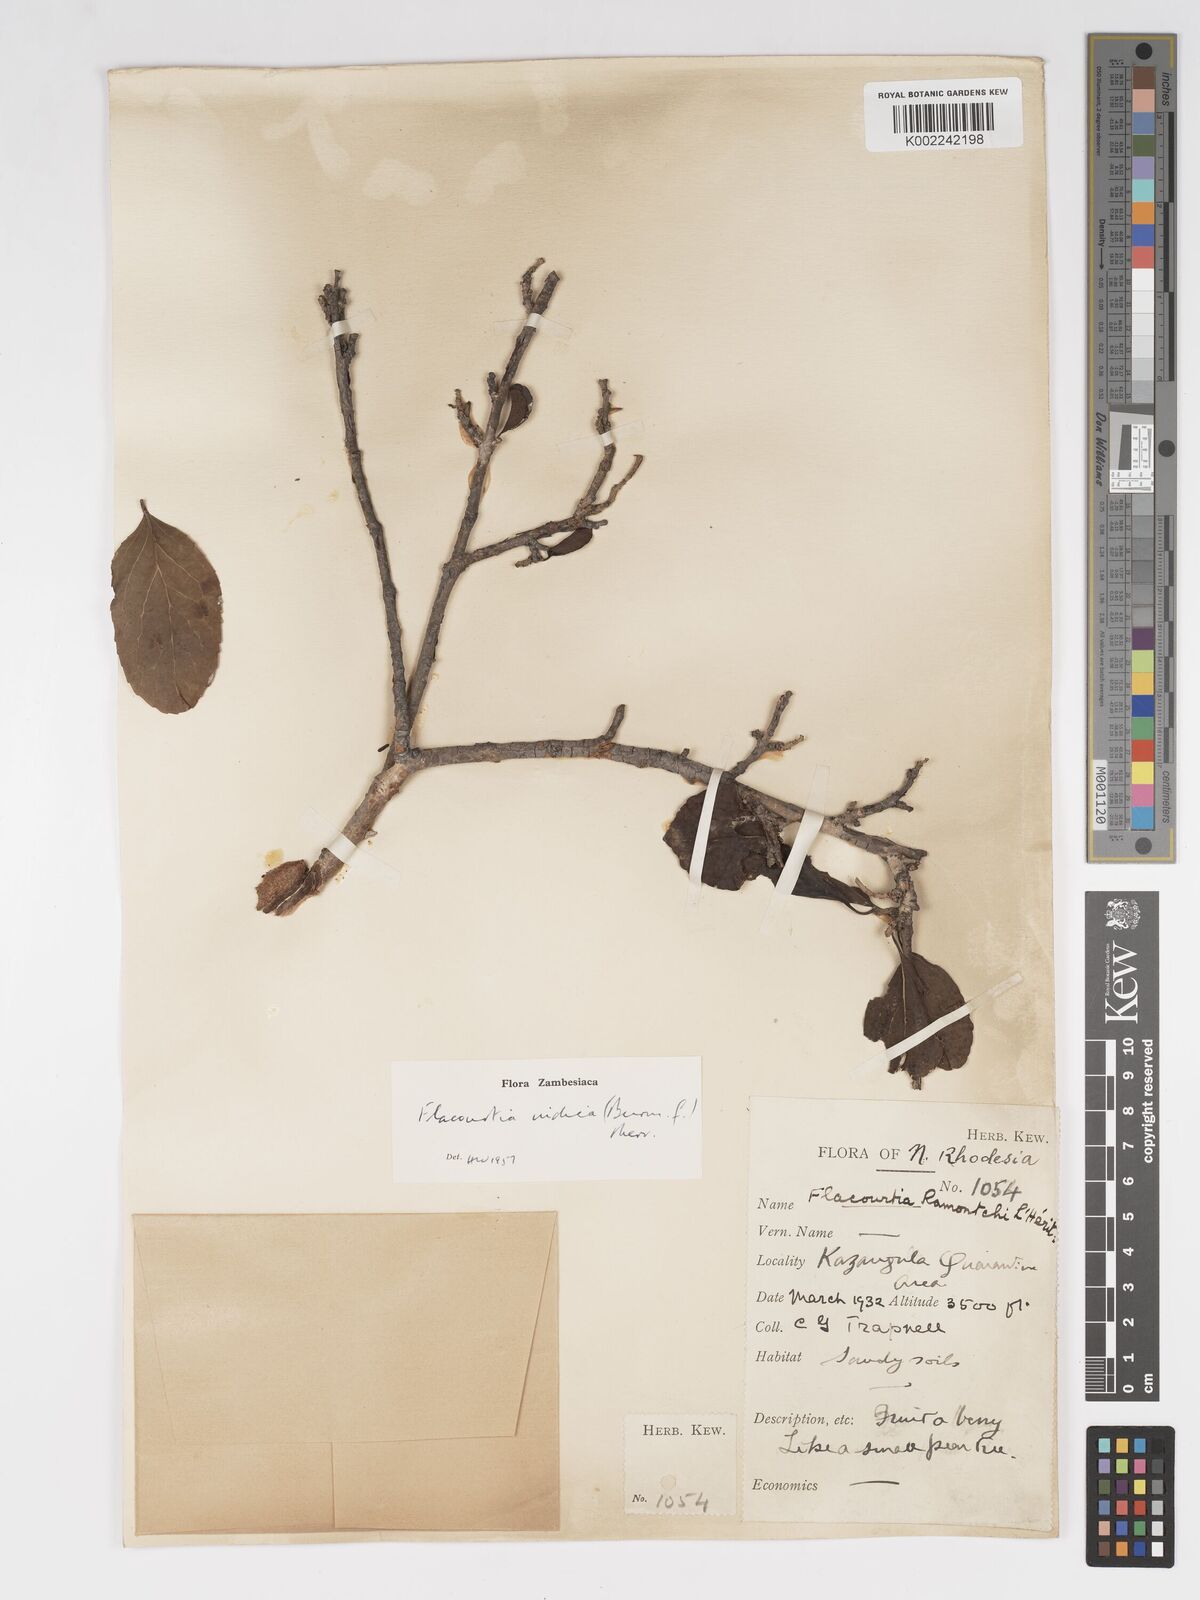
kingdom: Plantae
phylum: Tracheophyta
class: Magnoliopsida
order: Malpighiales
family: Salicaceae
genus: Flacourtia
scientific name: Flacourtia indica
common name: Governor's plum
